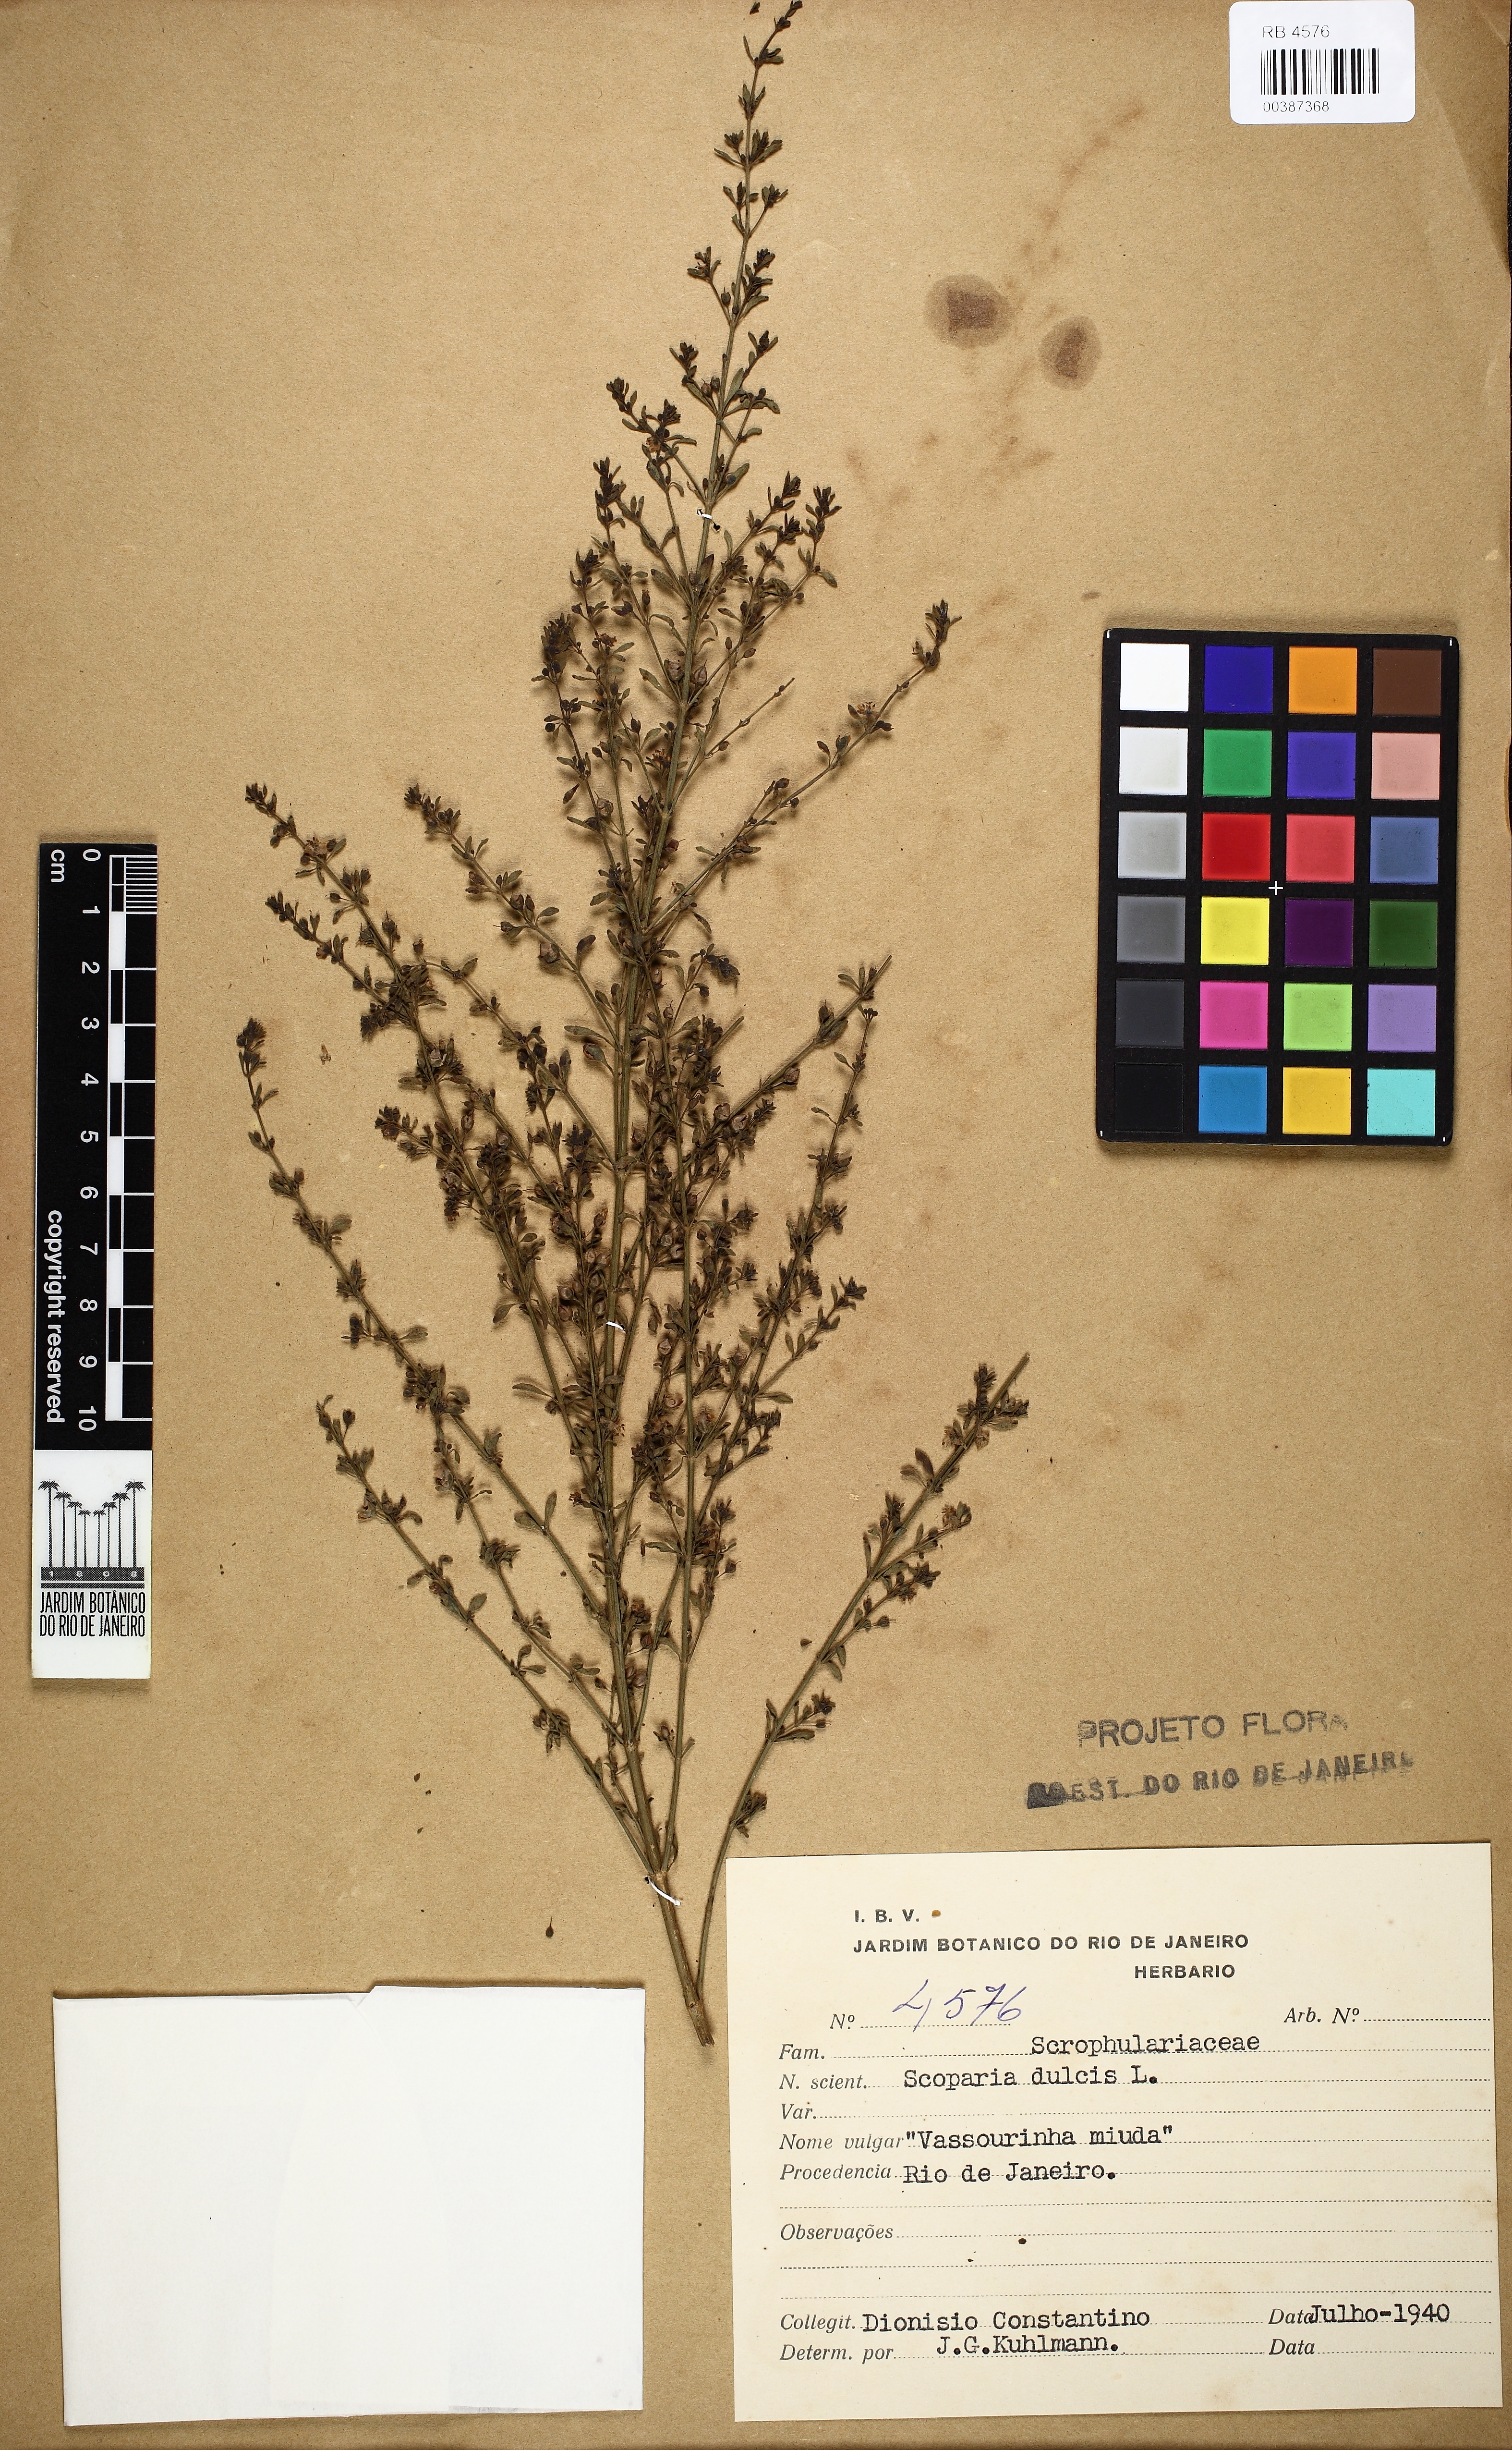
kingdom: Plantae
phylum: Tracheophyta
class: Magnoliopsida
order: Lamiales
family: Plantaginaceae
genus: Scoparia
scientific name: Scoparia dulcis
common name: Scoparia-weed
